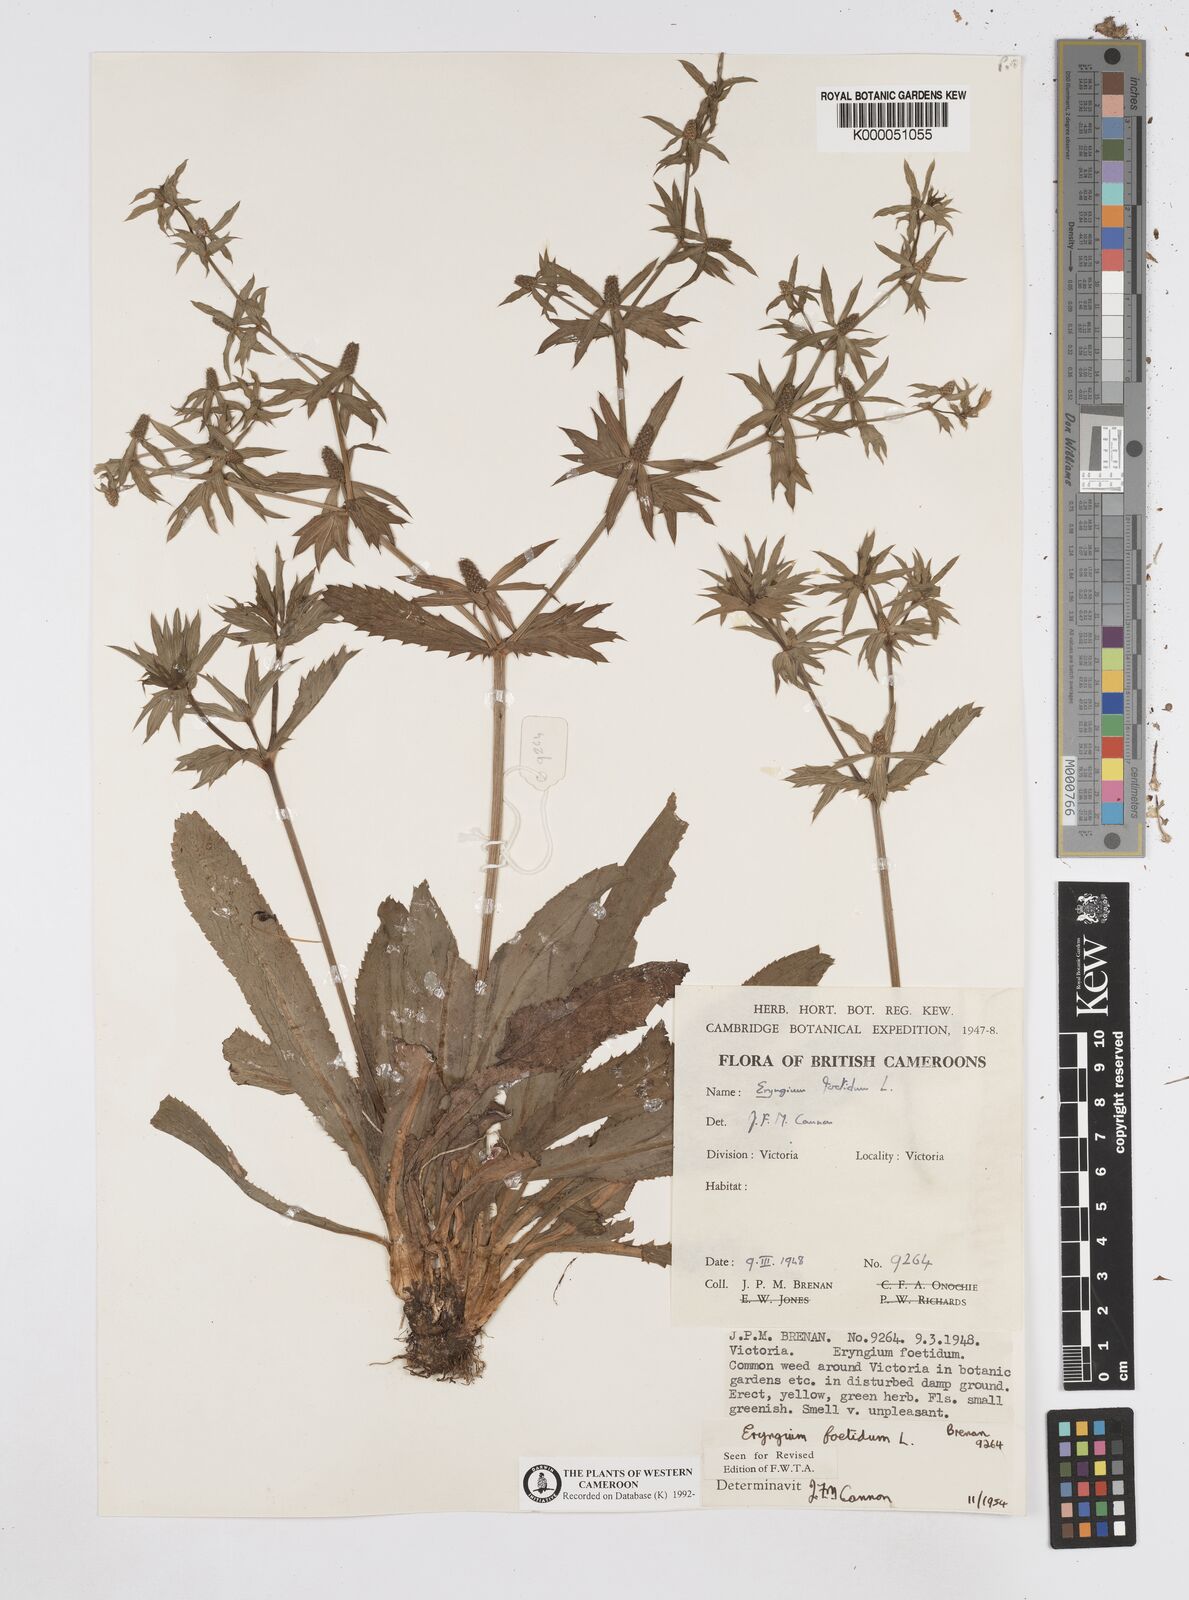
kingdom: Plantae
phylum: Tracheophyta
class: Magnoliopsida
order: Apiales
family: Apiaceae
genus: Eryngium
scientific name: Eryngium foetidum
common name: Fitweed
